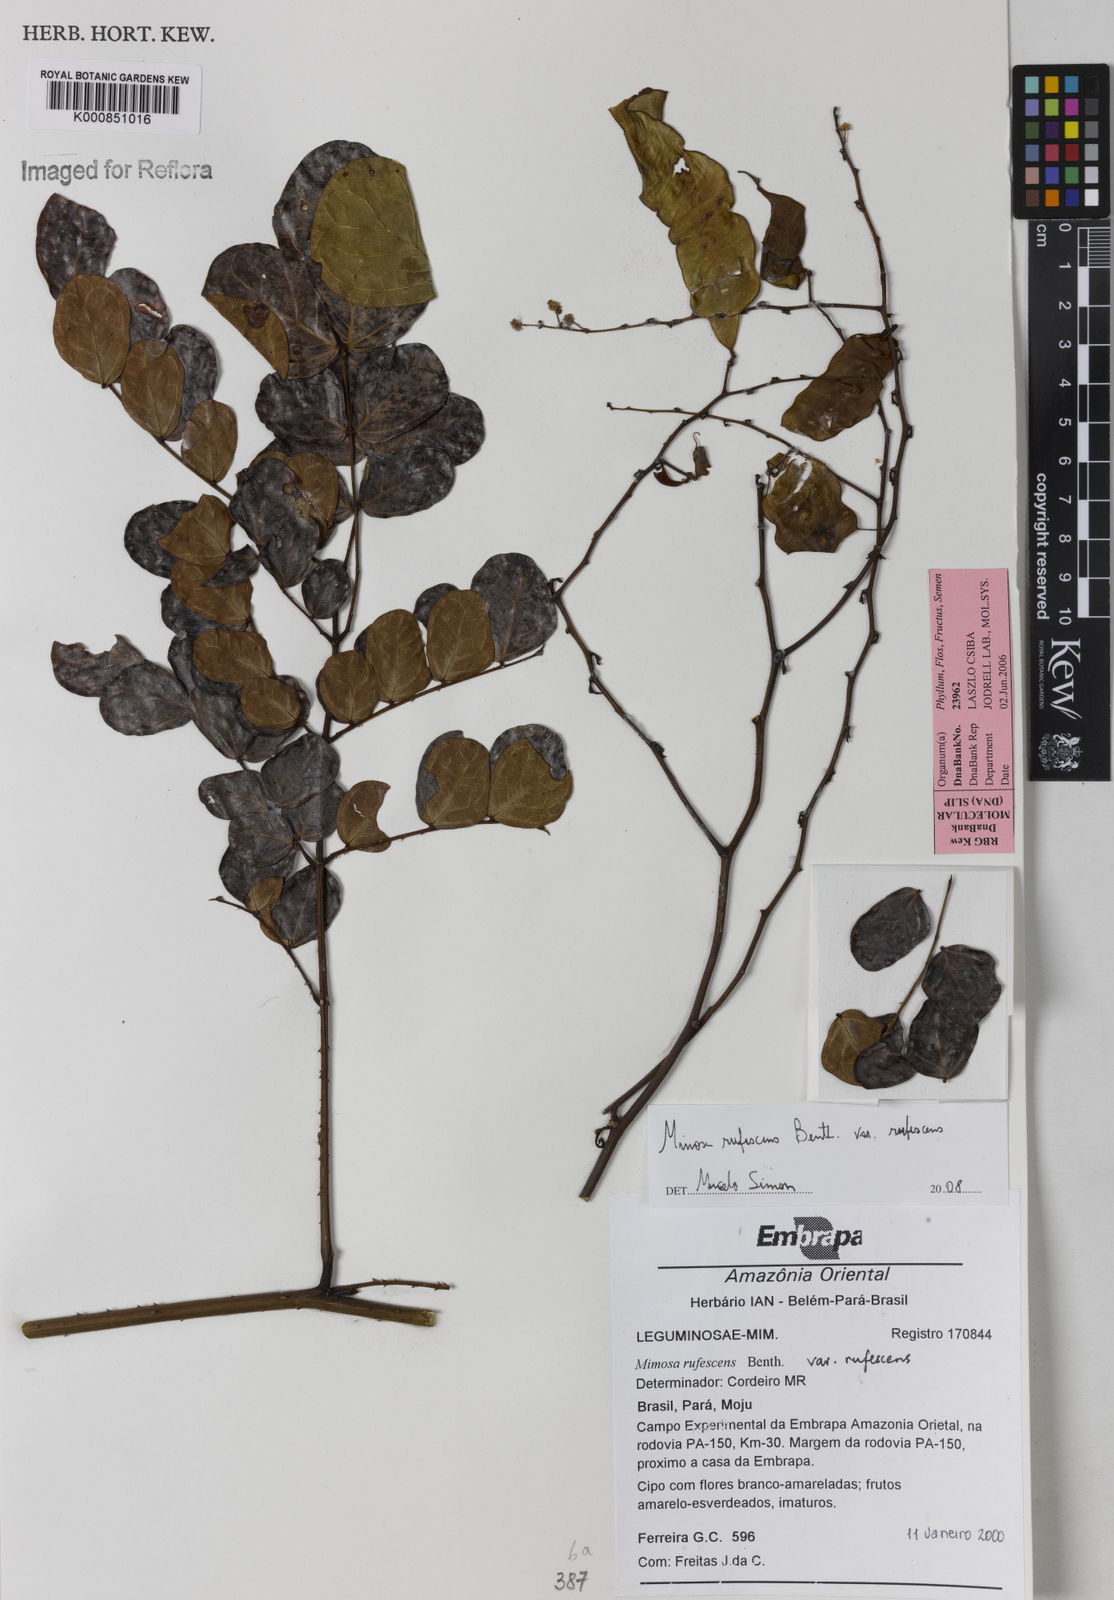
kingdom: Plantae
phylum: Tracheophyta
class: Magnoliopsida
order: Fabales
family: Fabaceae
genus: Mimosa
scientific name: Mimosa rufescens
